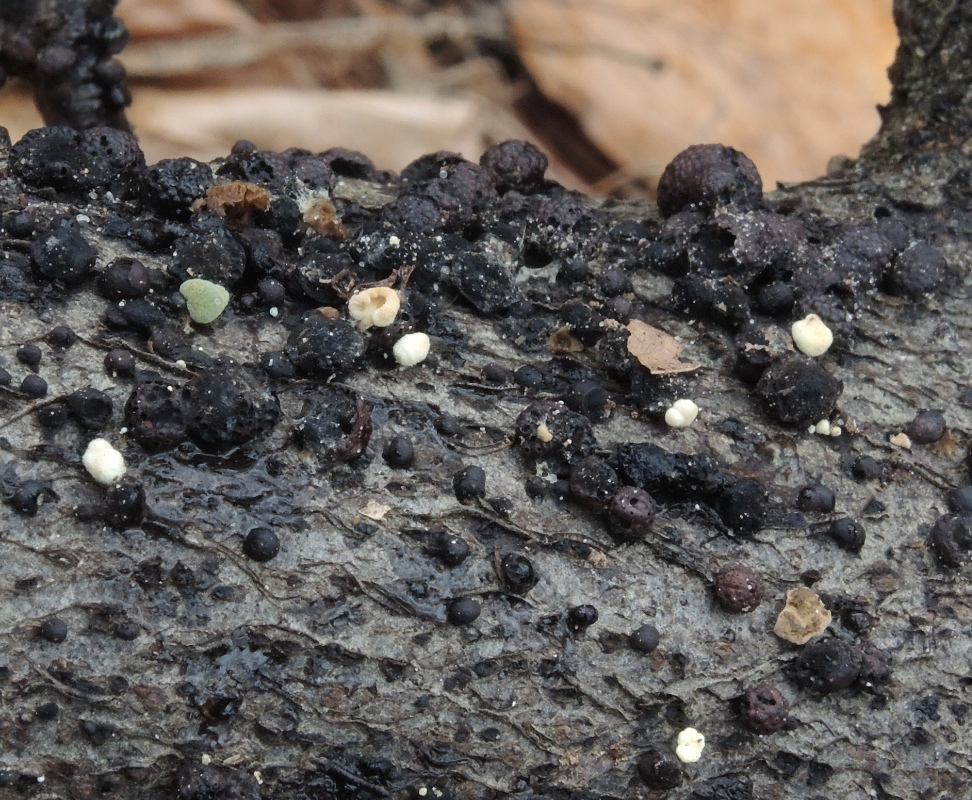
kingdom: Fungi
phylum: Ascomycota
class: Sordariomycetes
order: Xylariales
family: Hypoxylaceae
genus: Hypoxylon
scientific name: Hypoxylon fragiforme
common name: kuljordbær
